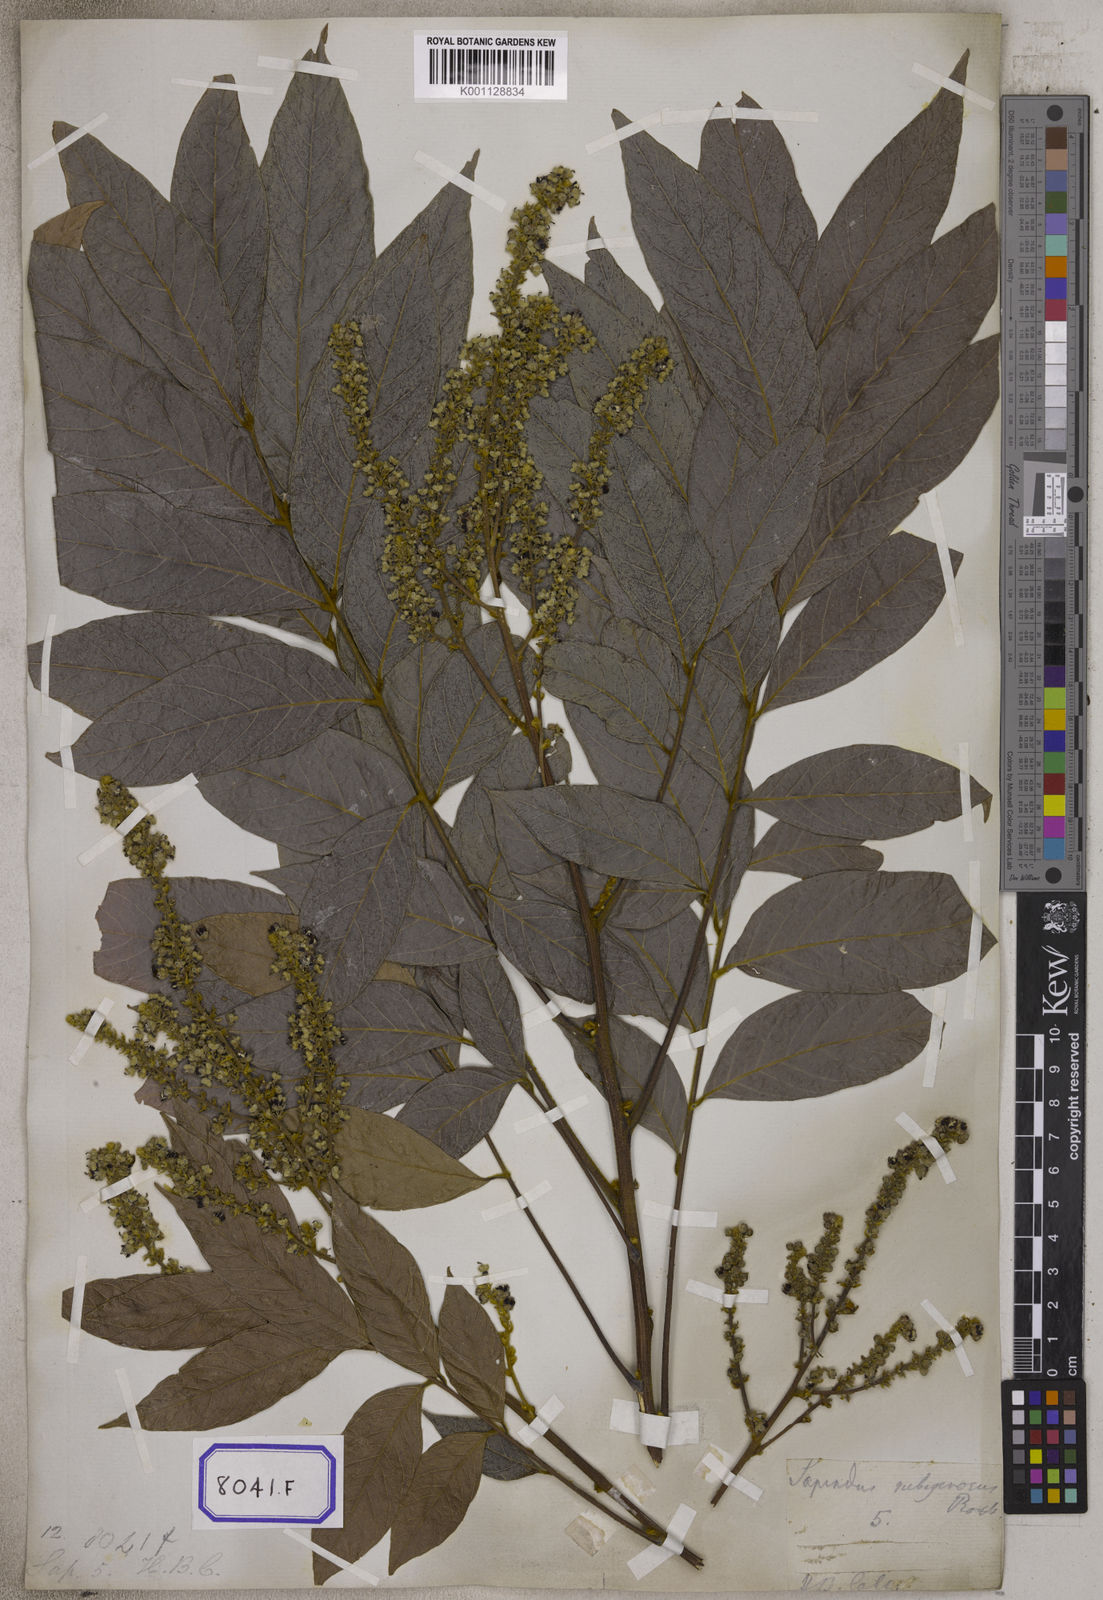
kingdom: Plantae
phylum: Tracheophyta
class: Magnoliopsida
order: Sapindales
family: Sapindaceae
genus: Lepisanthes
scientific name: Lepisanthes rubiginosa
